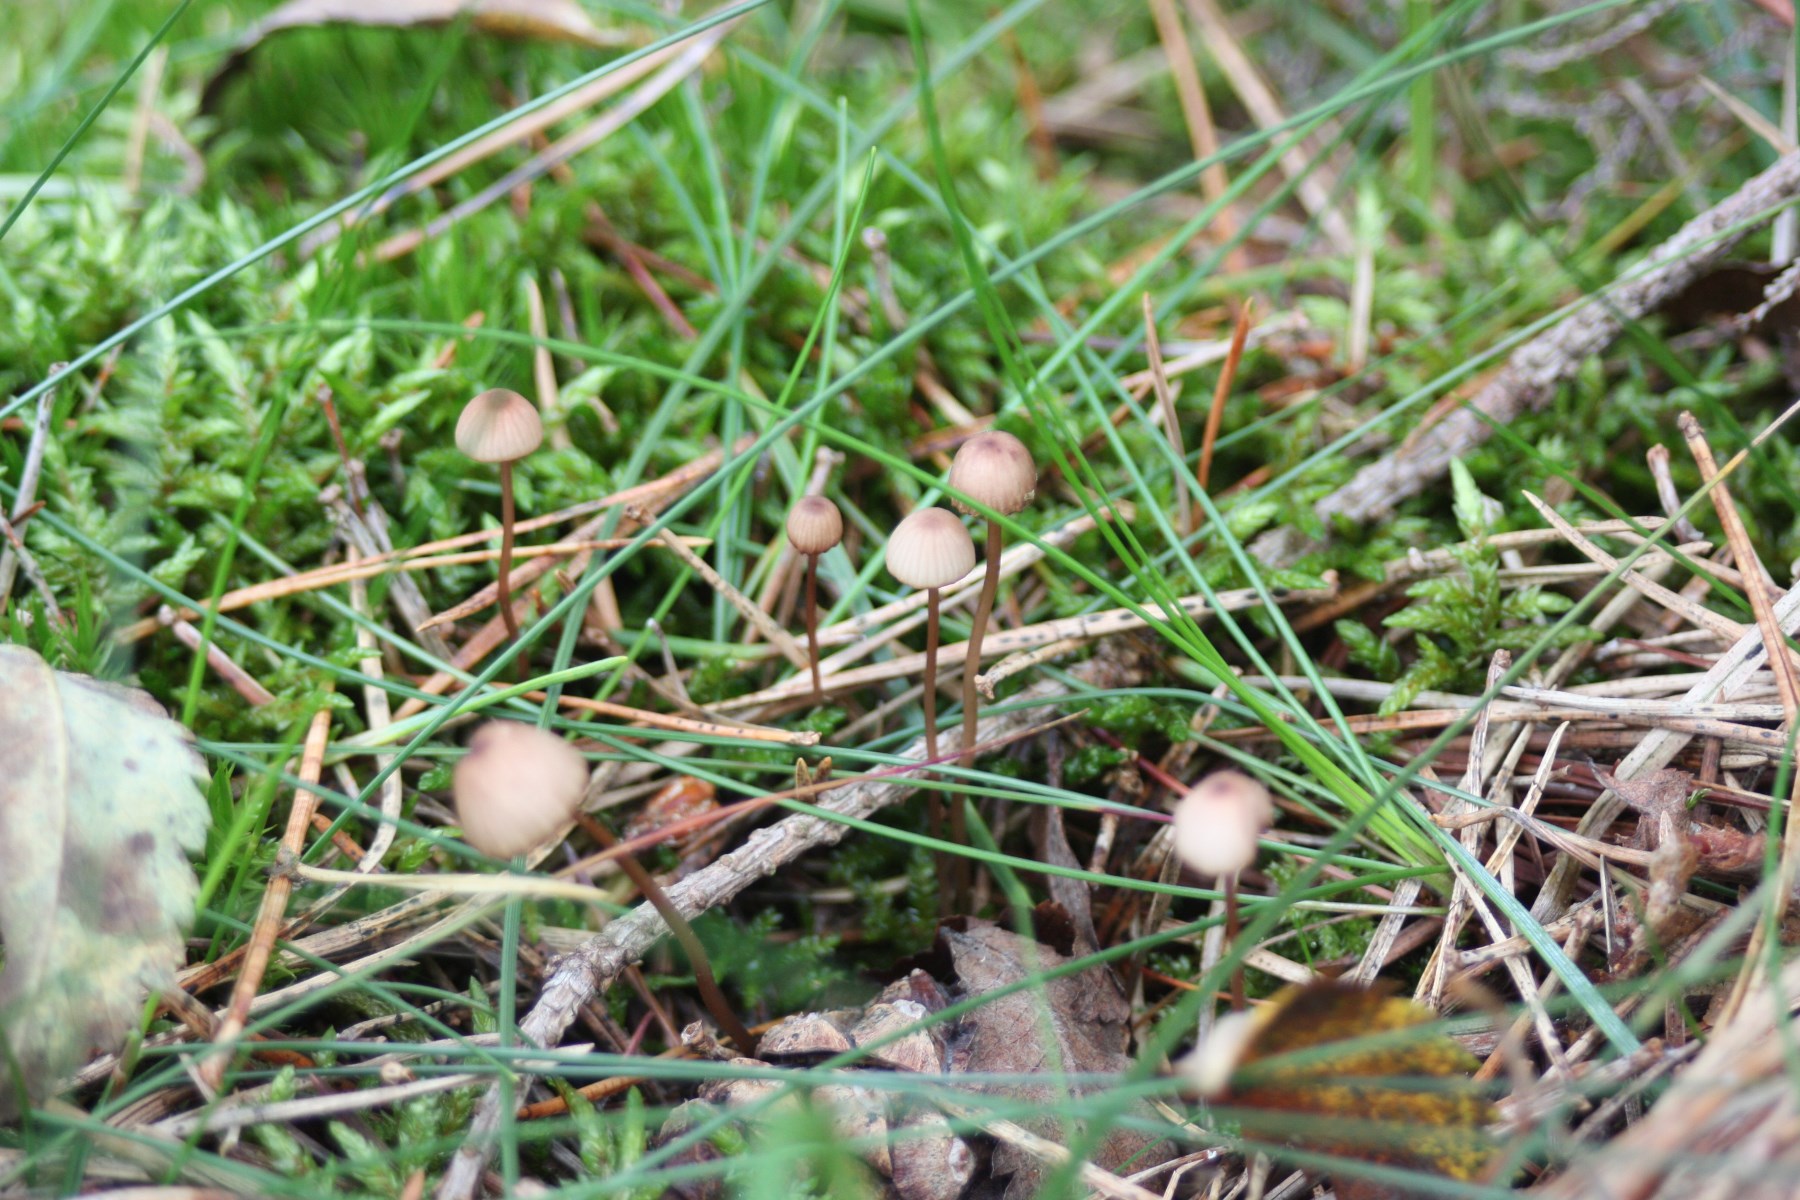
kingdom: Fungi
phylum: Basidiomycota
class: Agaricomycetes
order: Agaricales
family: Mycenaceae
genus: Mycena
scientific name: Mycena sanguinolenta
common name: rødmælket huesvamp
